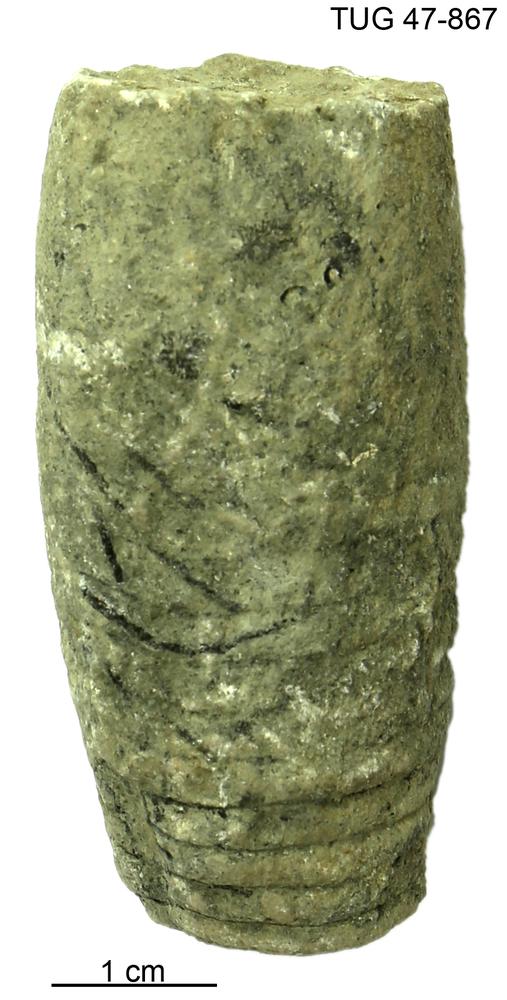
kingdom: Animalia
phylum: Mollusca
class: Cephalopoda
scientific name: Cephalopoda
